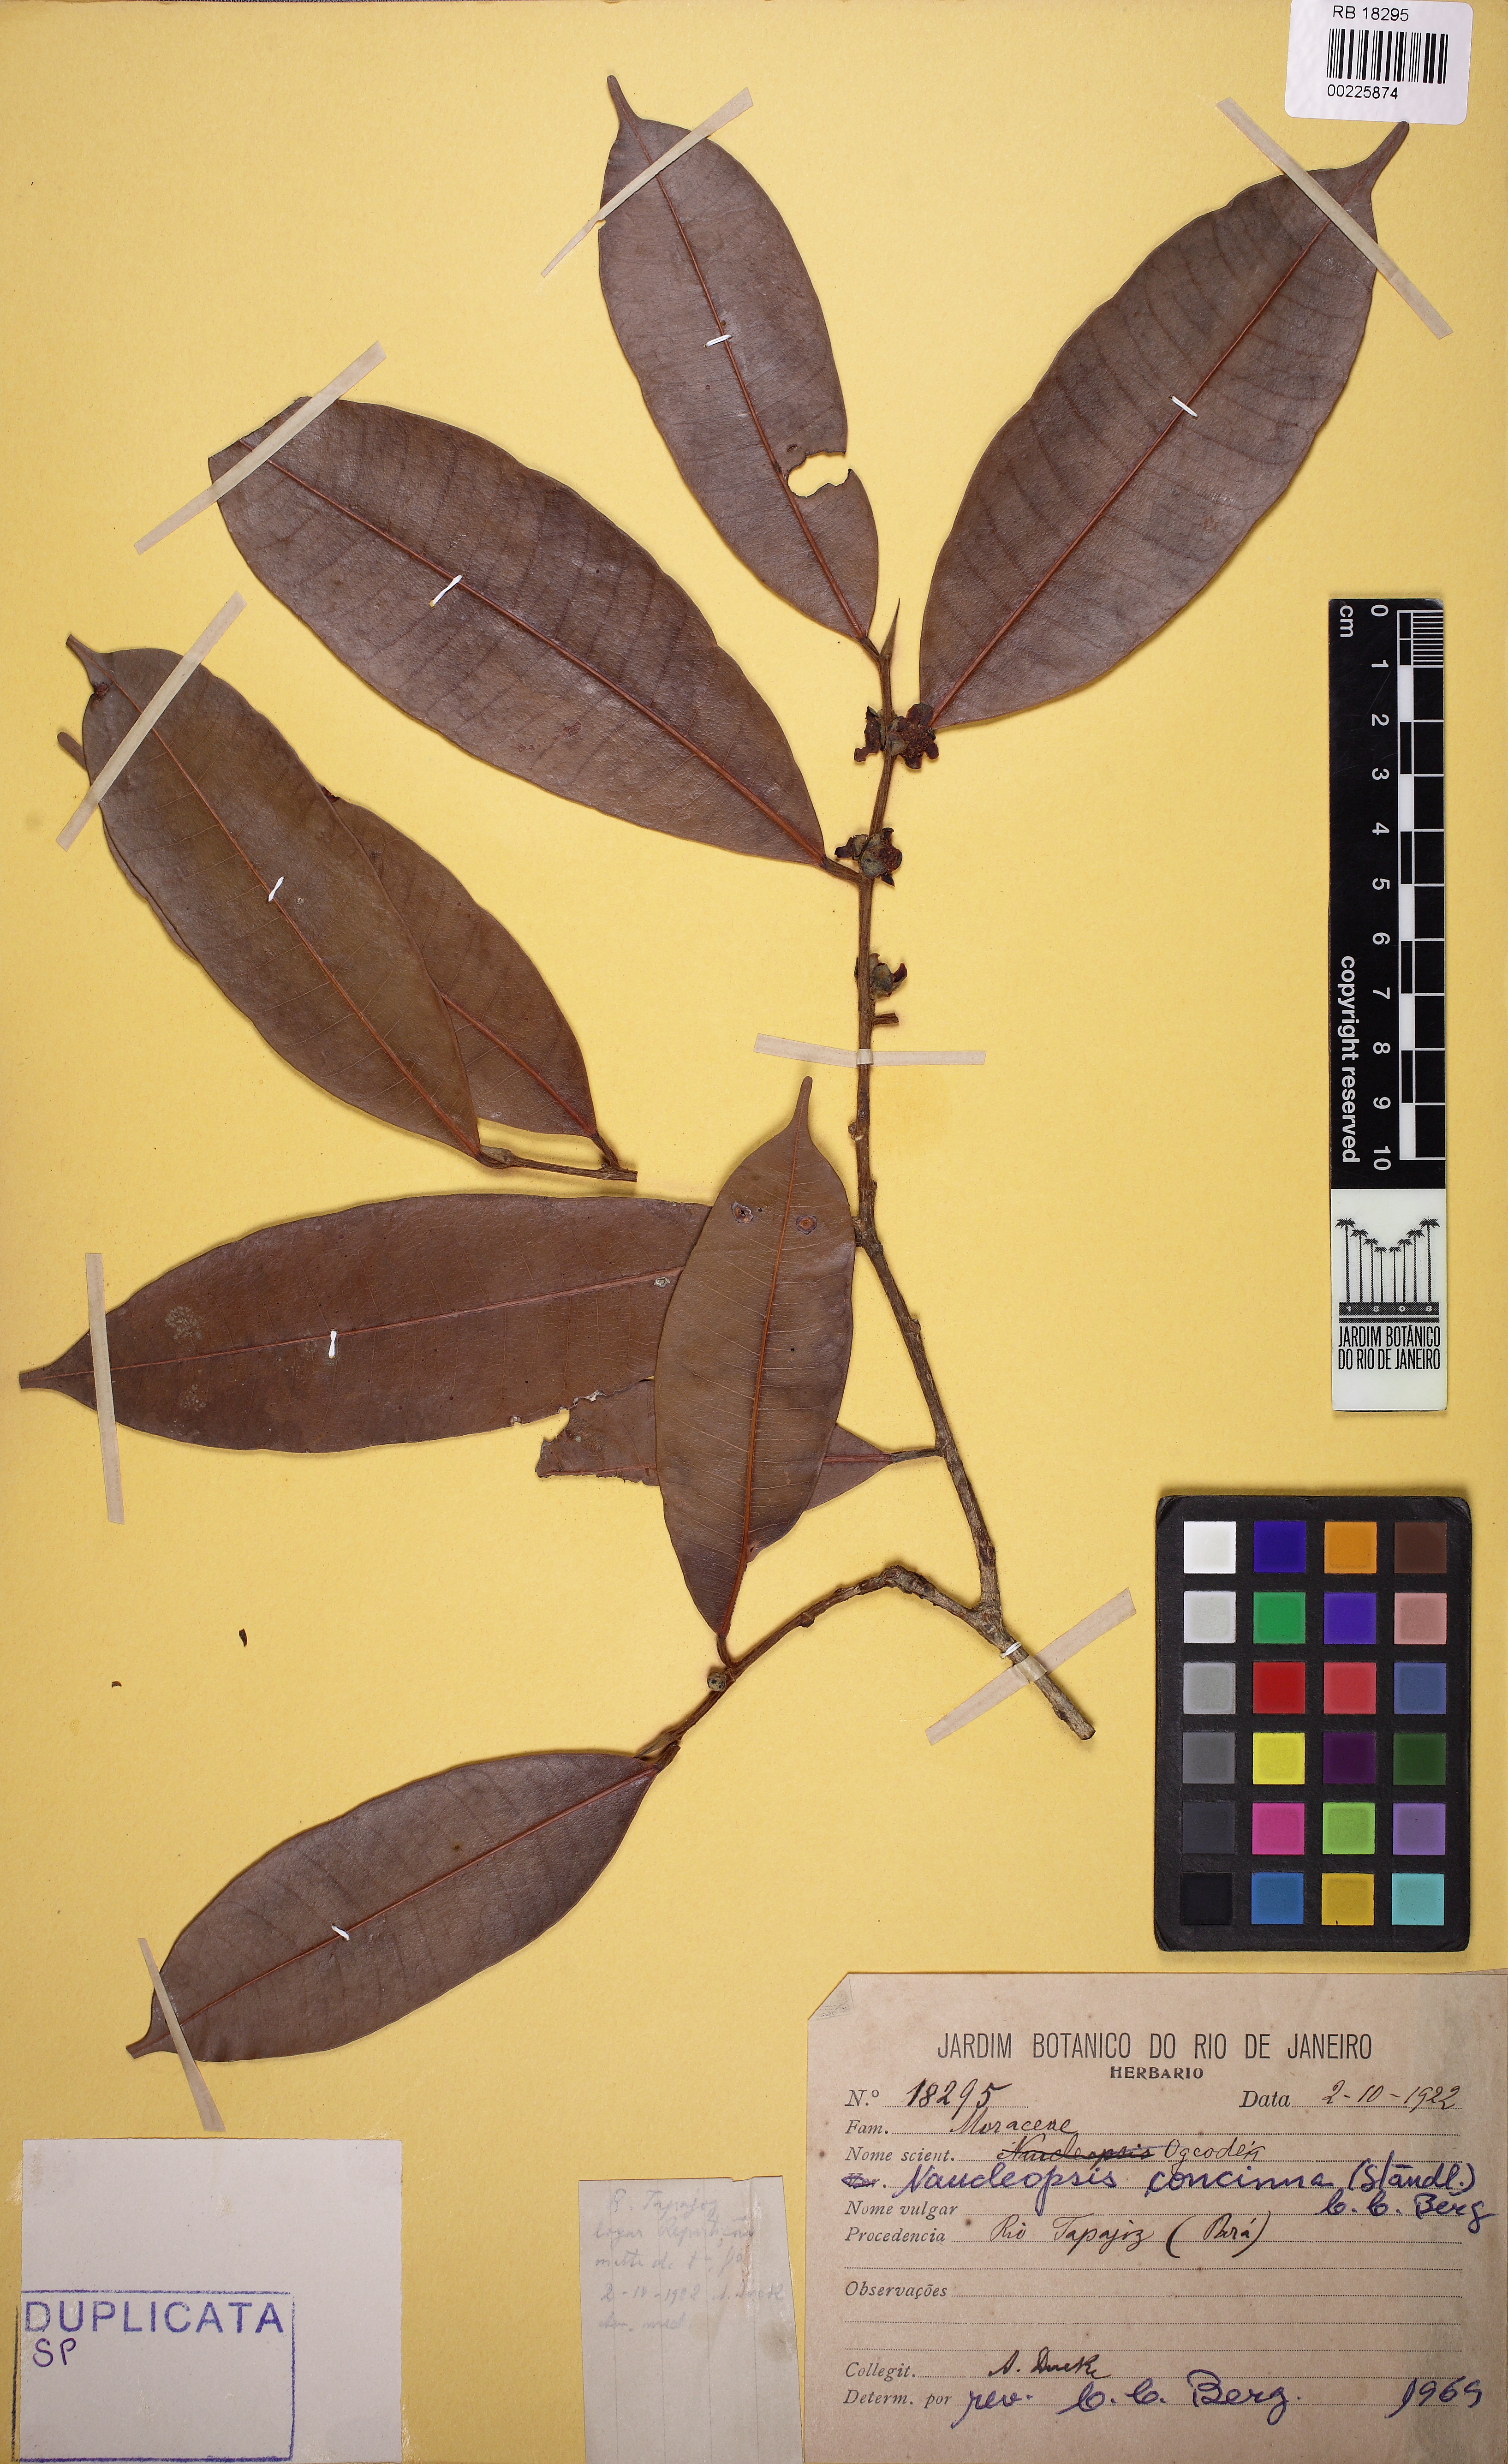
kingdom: Plantae
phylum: Tracheophyta
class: Magnoliopsida
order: Rosales
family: Moraceae
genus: Naucleopsis
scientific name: Naucleopsis caloneura
